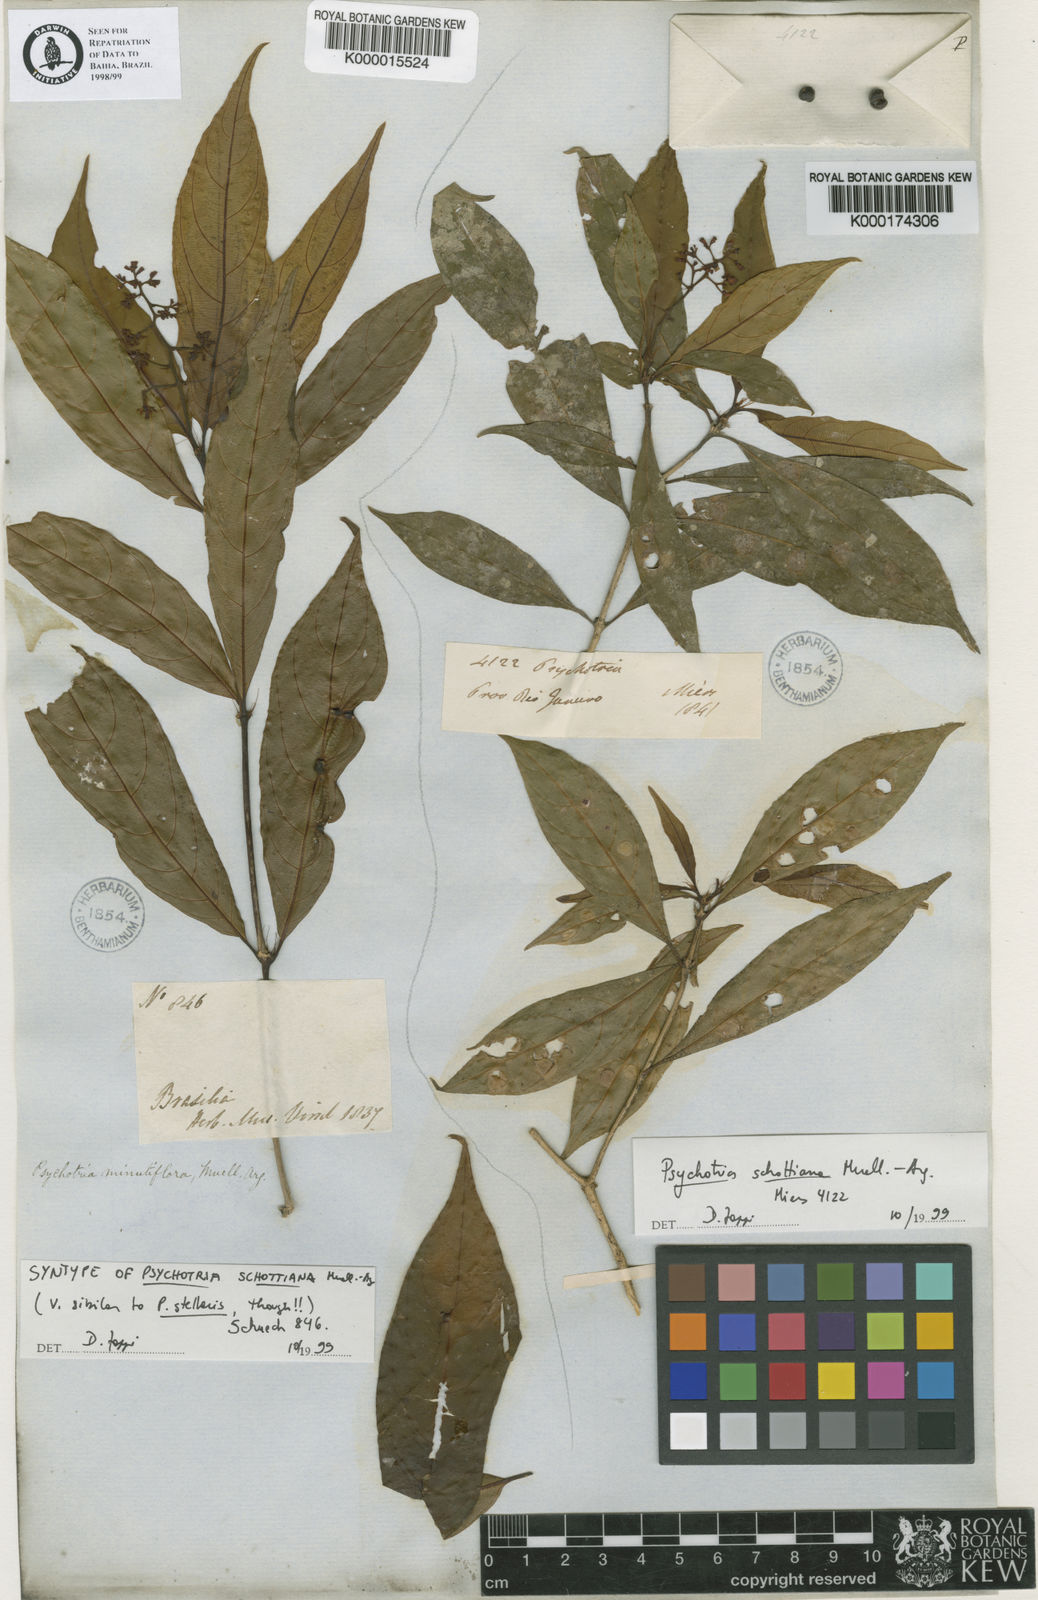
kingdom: Plantae
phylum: Tracheophyta
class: Magnoliopsida
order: Gentianales
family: Rubiaceae
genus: Psychotria
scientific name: Psychotria
